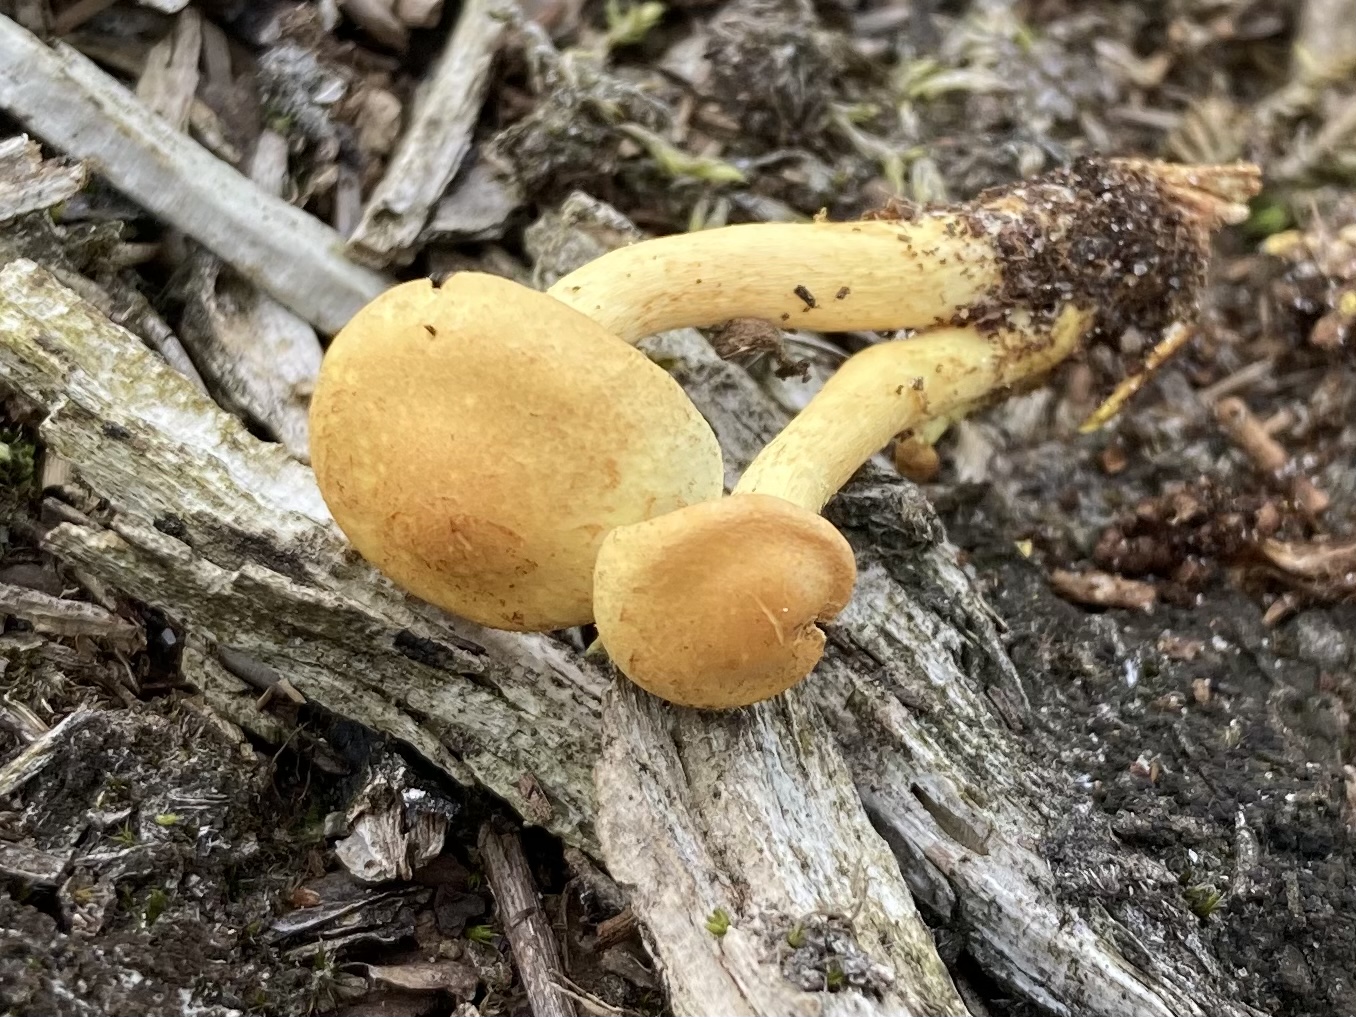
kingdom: Fungi
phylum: Basidiomycota
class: Agaricomycetes
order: Agaricales
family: Strophariaceae
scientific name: Strophariaceae
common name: bredbladfamilien
